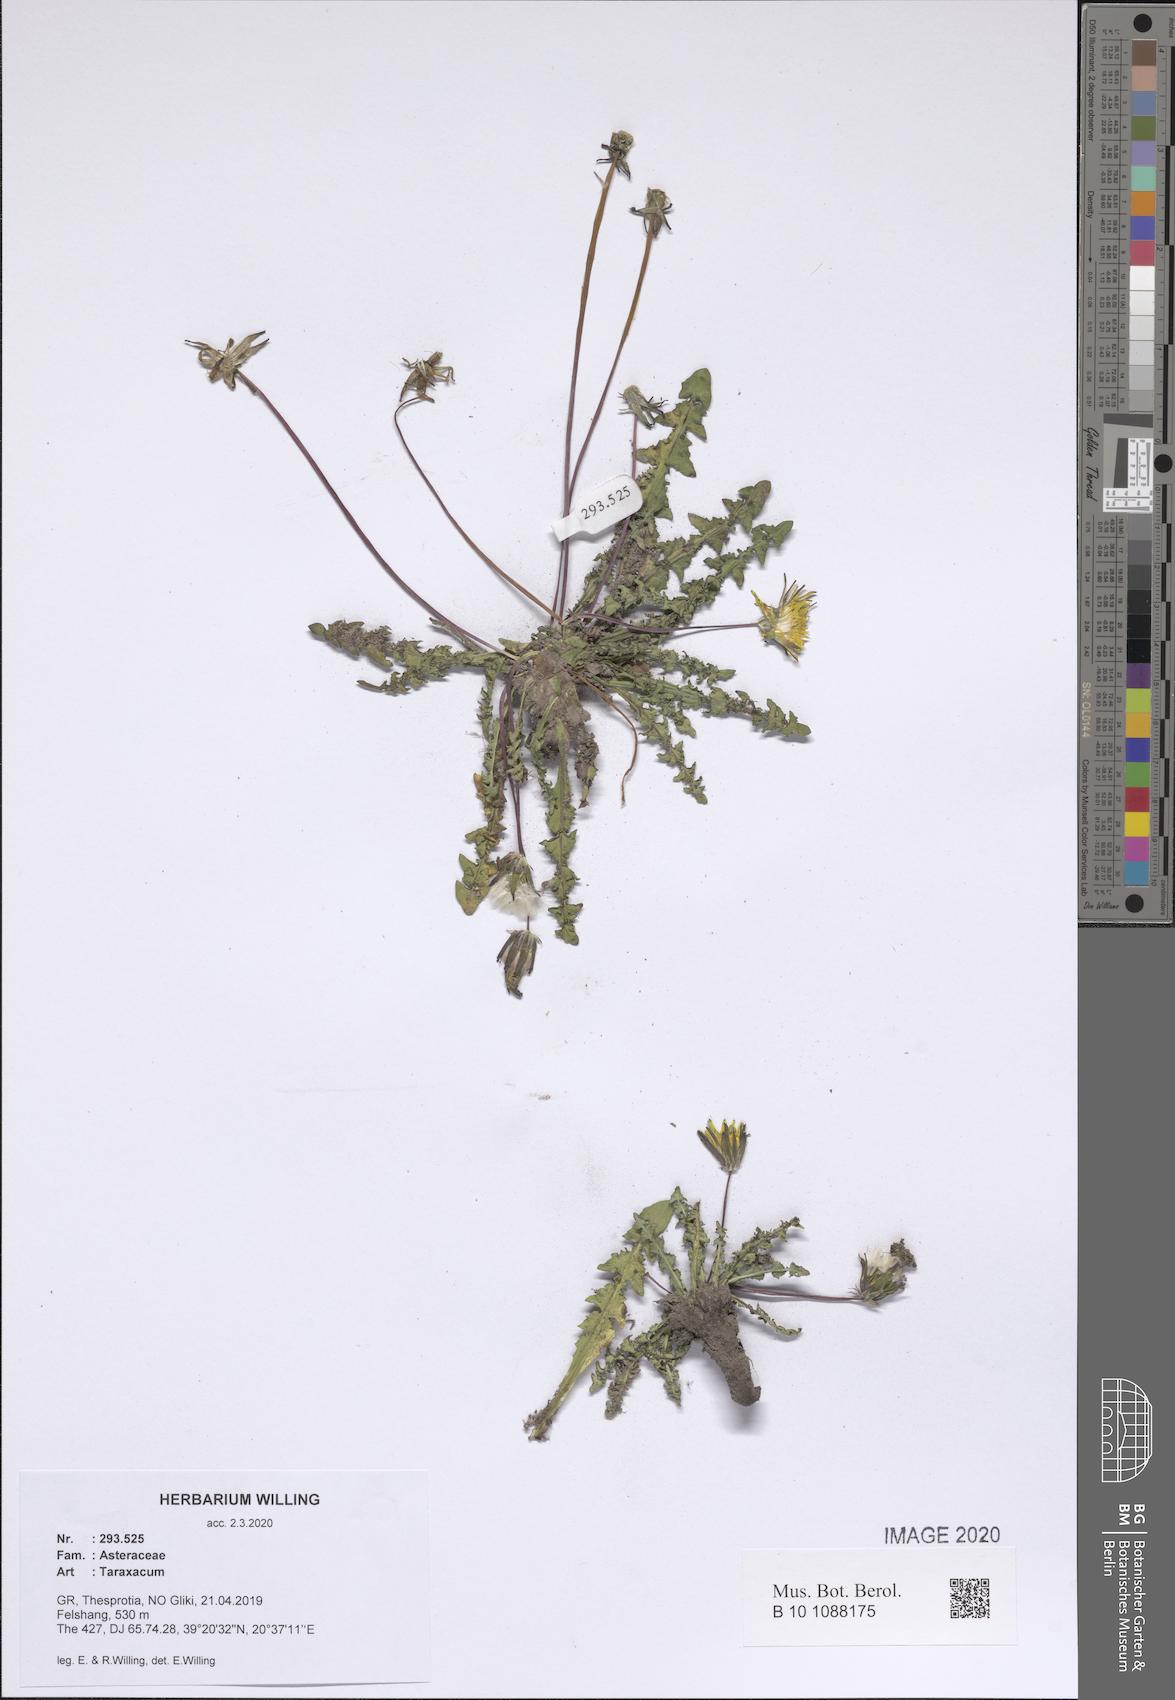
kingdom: Plantae
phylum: Tracheophyta
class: Magnoliopsida
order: Asterales
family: Asteraceae
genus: Taraxacum
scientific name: Taraxacum
